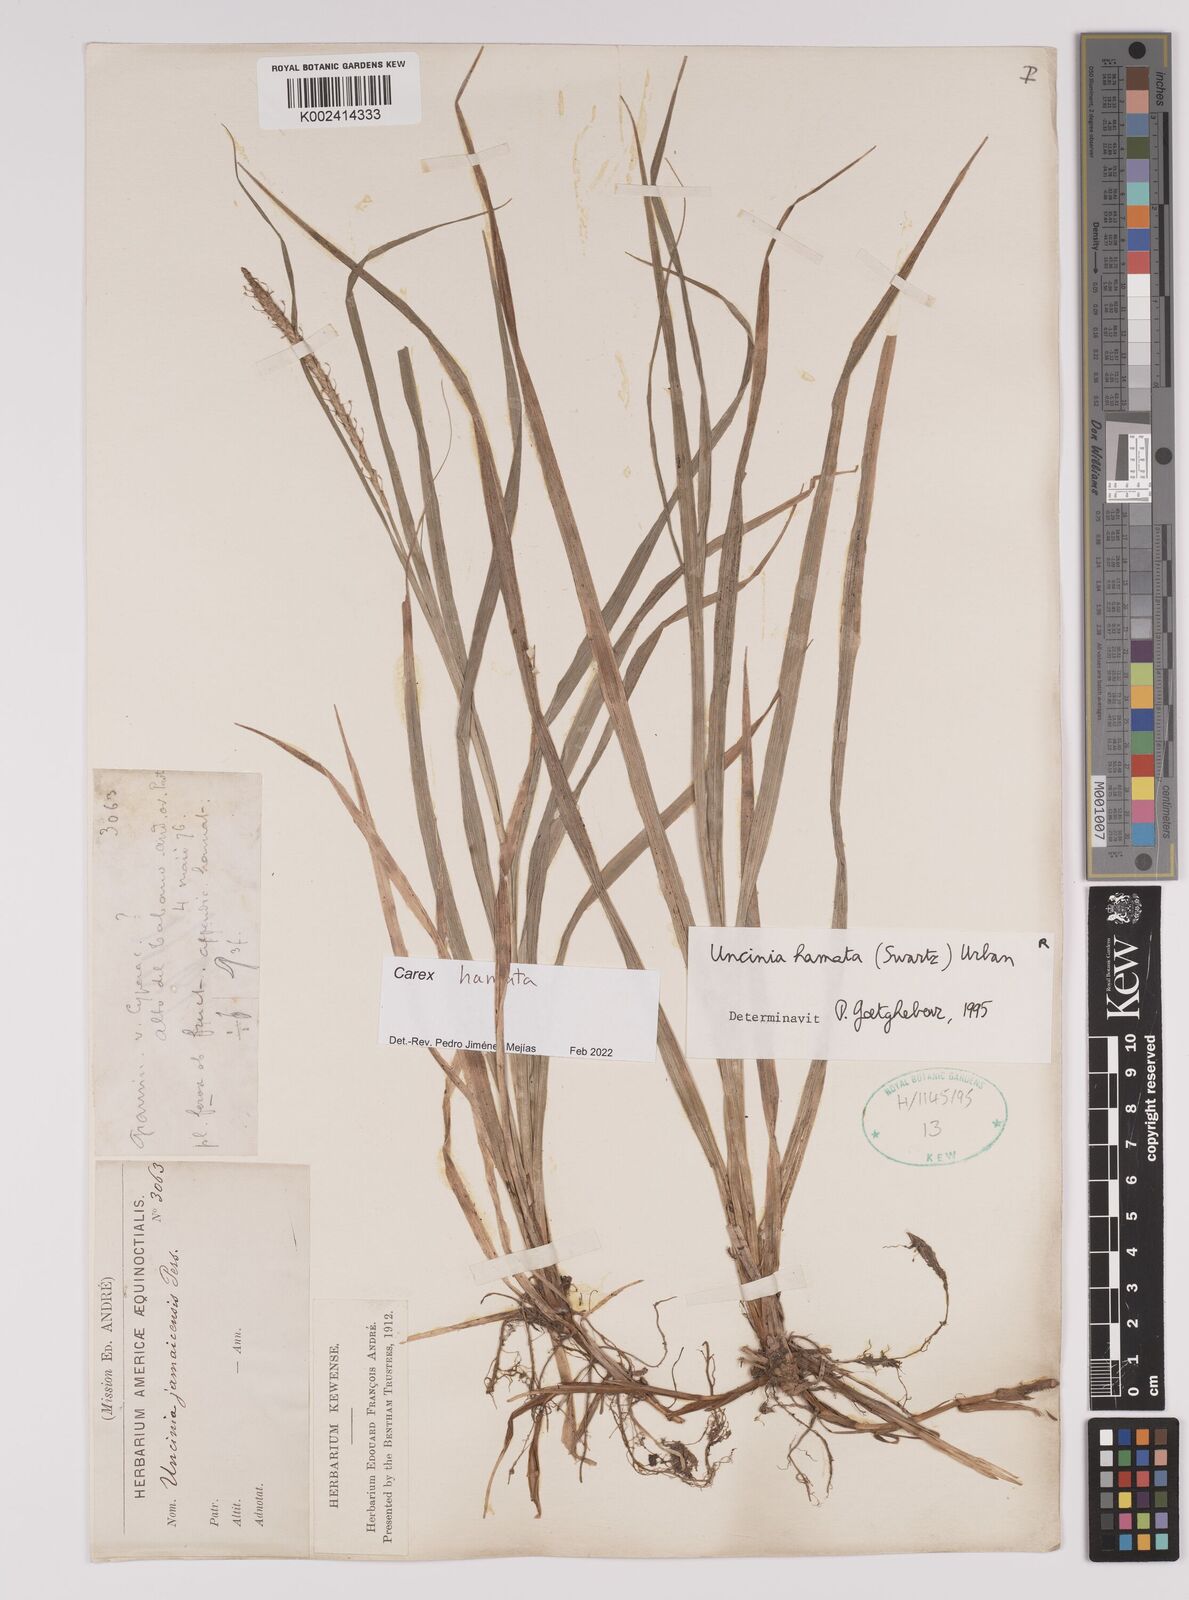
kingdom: Plantae
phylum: Tracheophyta
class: Liliopsida
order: Poales
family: Cyperaceae
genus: Carex
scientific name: Carex hamata
